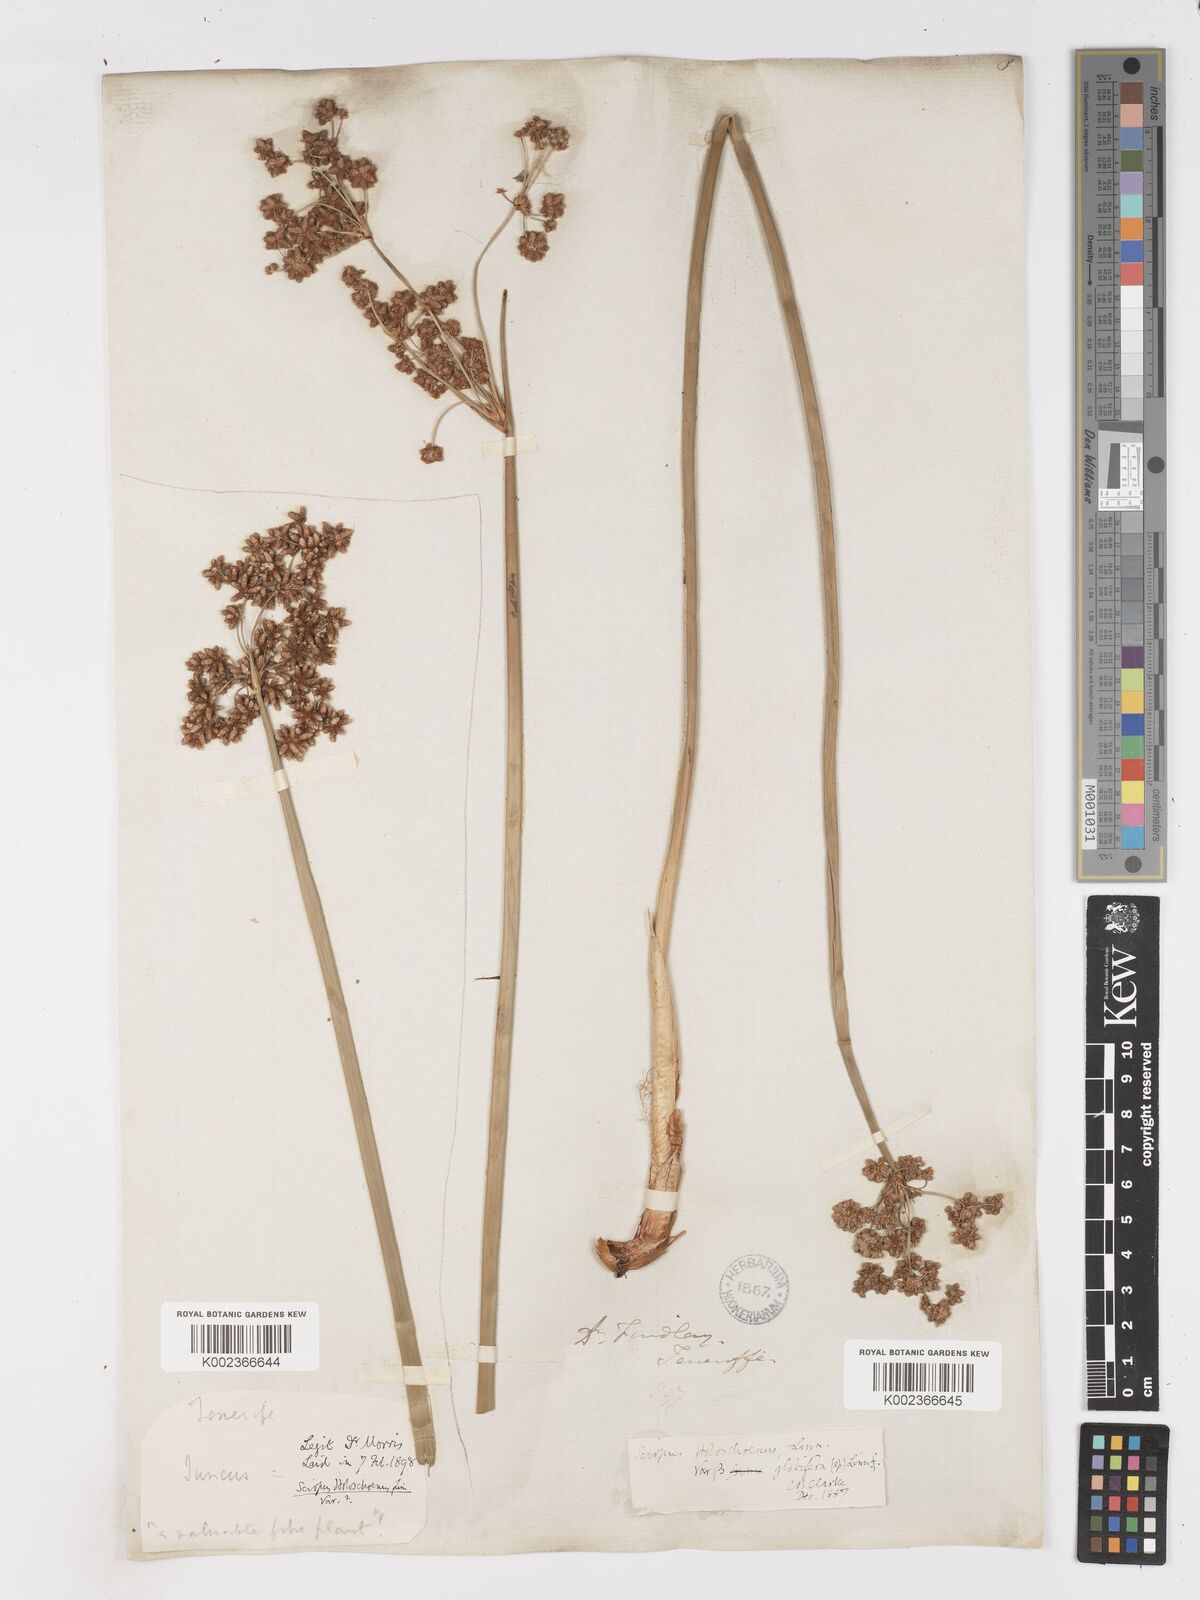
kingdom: Plantae
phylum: Tracheophyta
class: Liliopsida
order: Poales
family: Cyperaceae
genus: Scirpoides
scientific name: Scirpoides holoschoenus
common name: Round-headed club-rush
